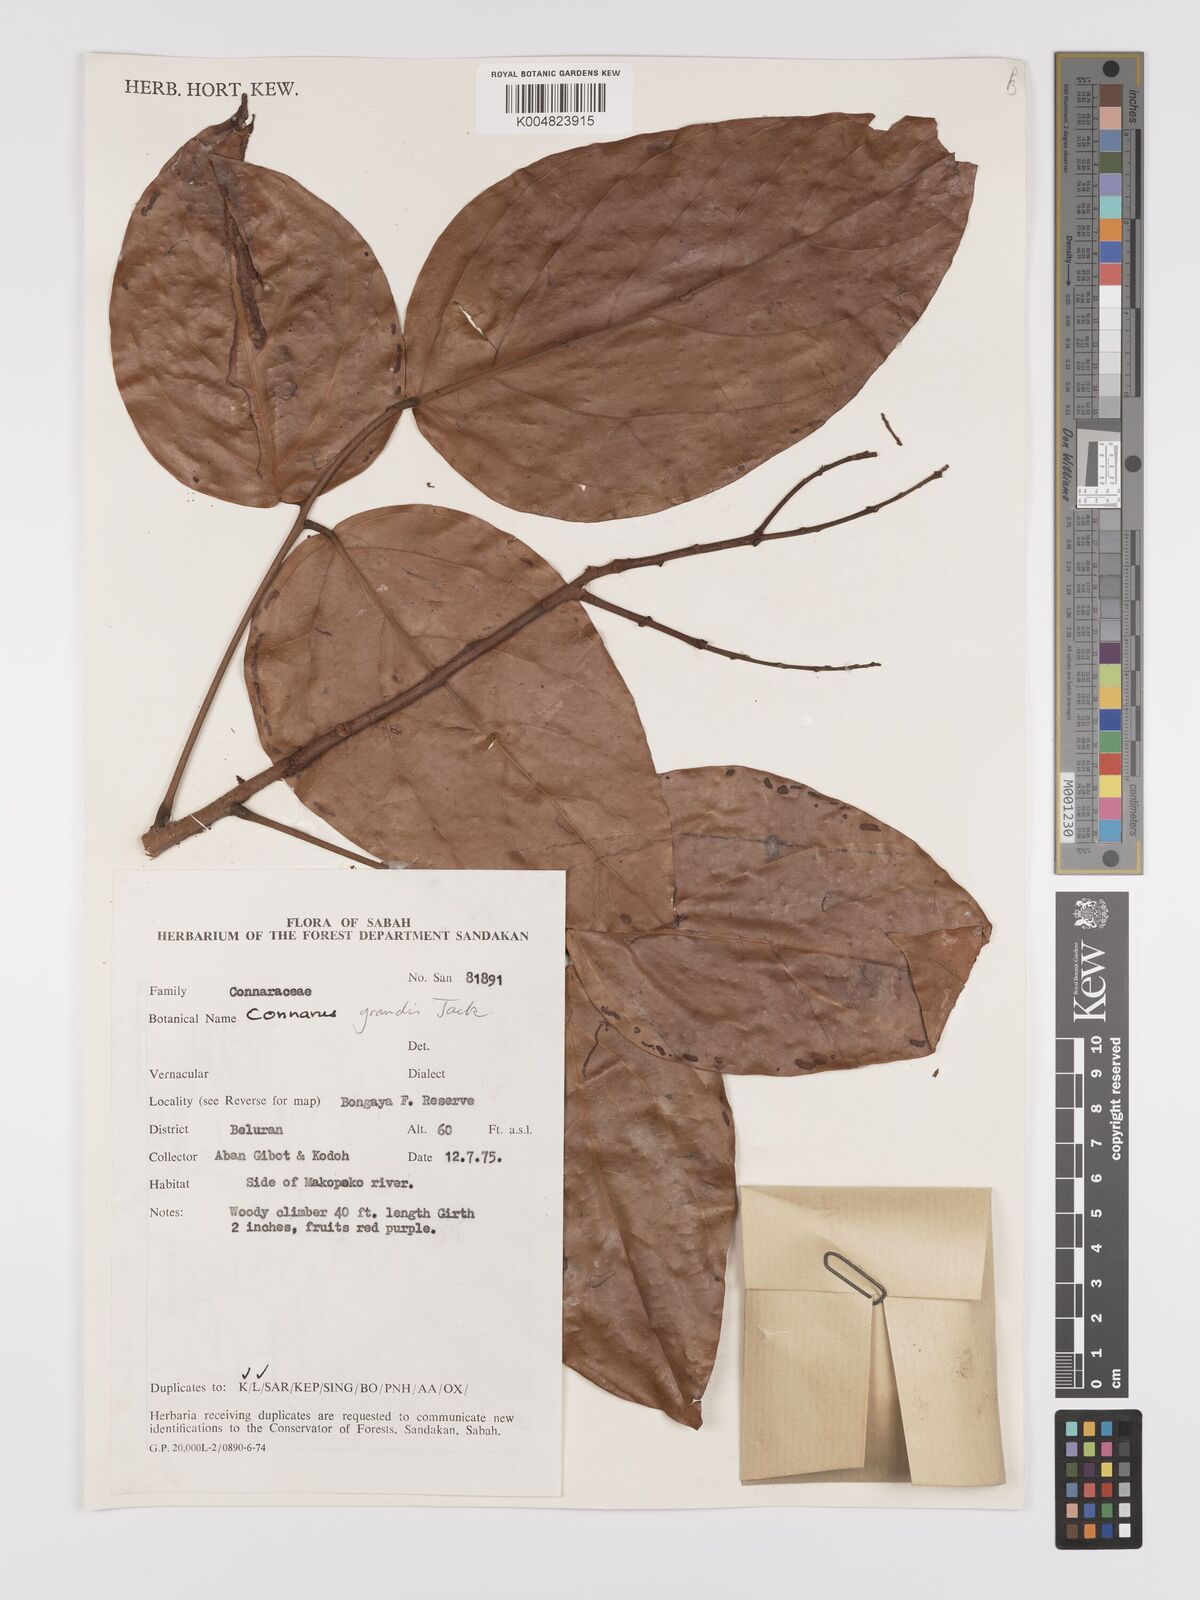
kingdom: Plantae
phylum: Tracheophyta
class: Magnoliopsida
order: Oxalidales
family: Connaraceae
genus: Connarus
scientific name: Connarus grandis
